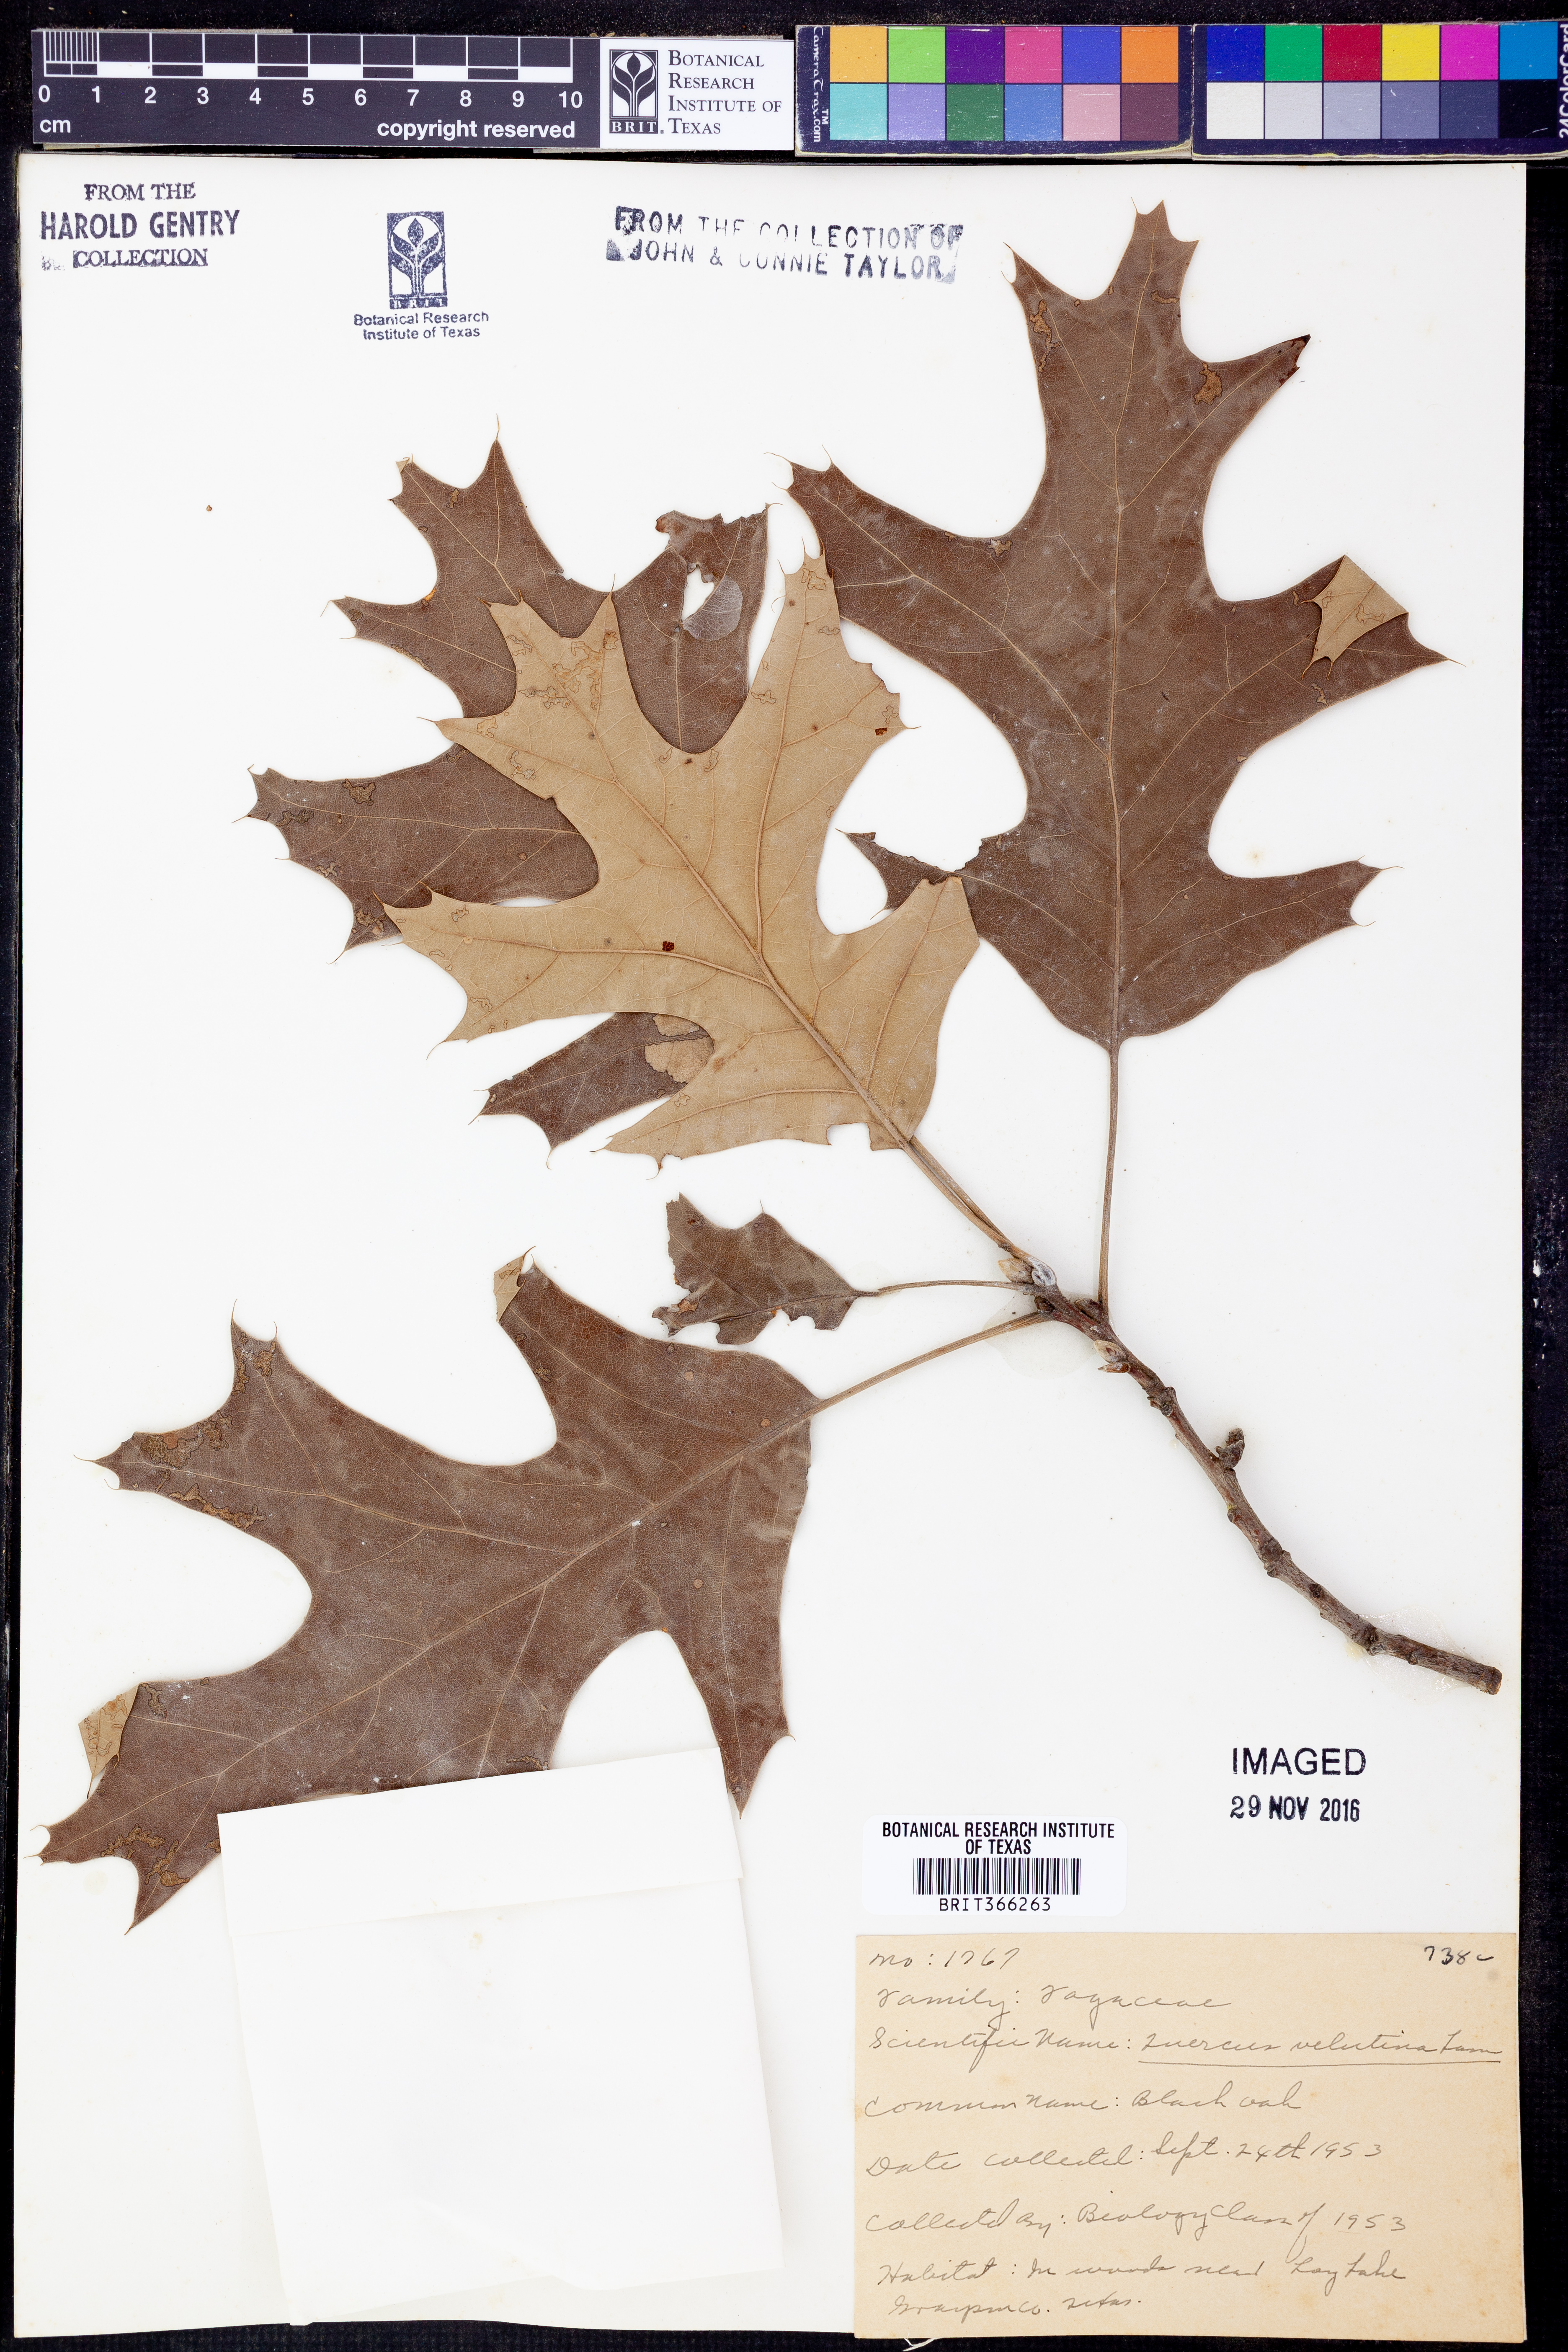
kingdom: Plantae
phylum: Tracheophyta
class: Magnoliopsida
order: Fagales
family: Fagaceae
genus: Quercus
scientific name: Quercus velutina
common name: Black oak
